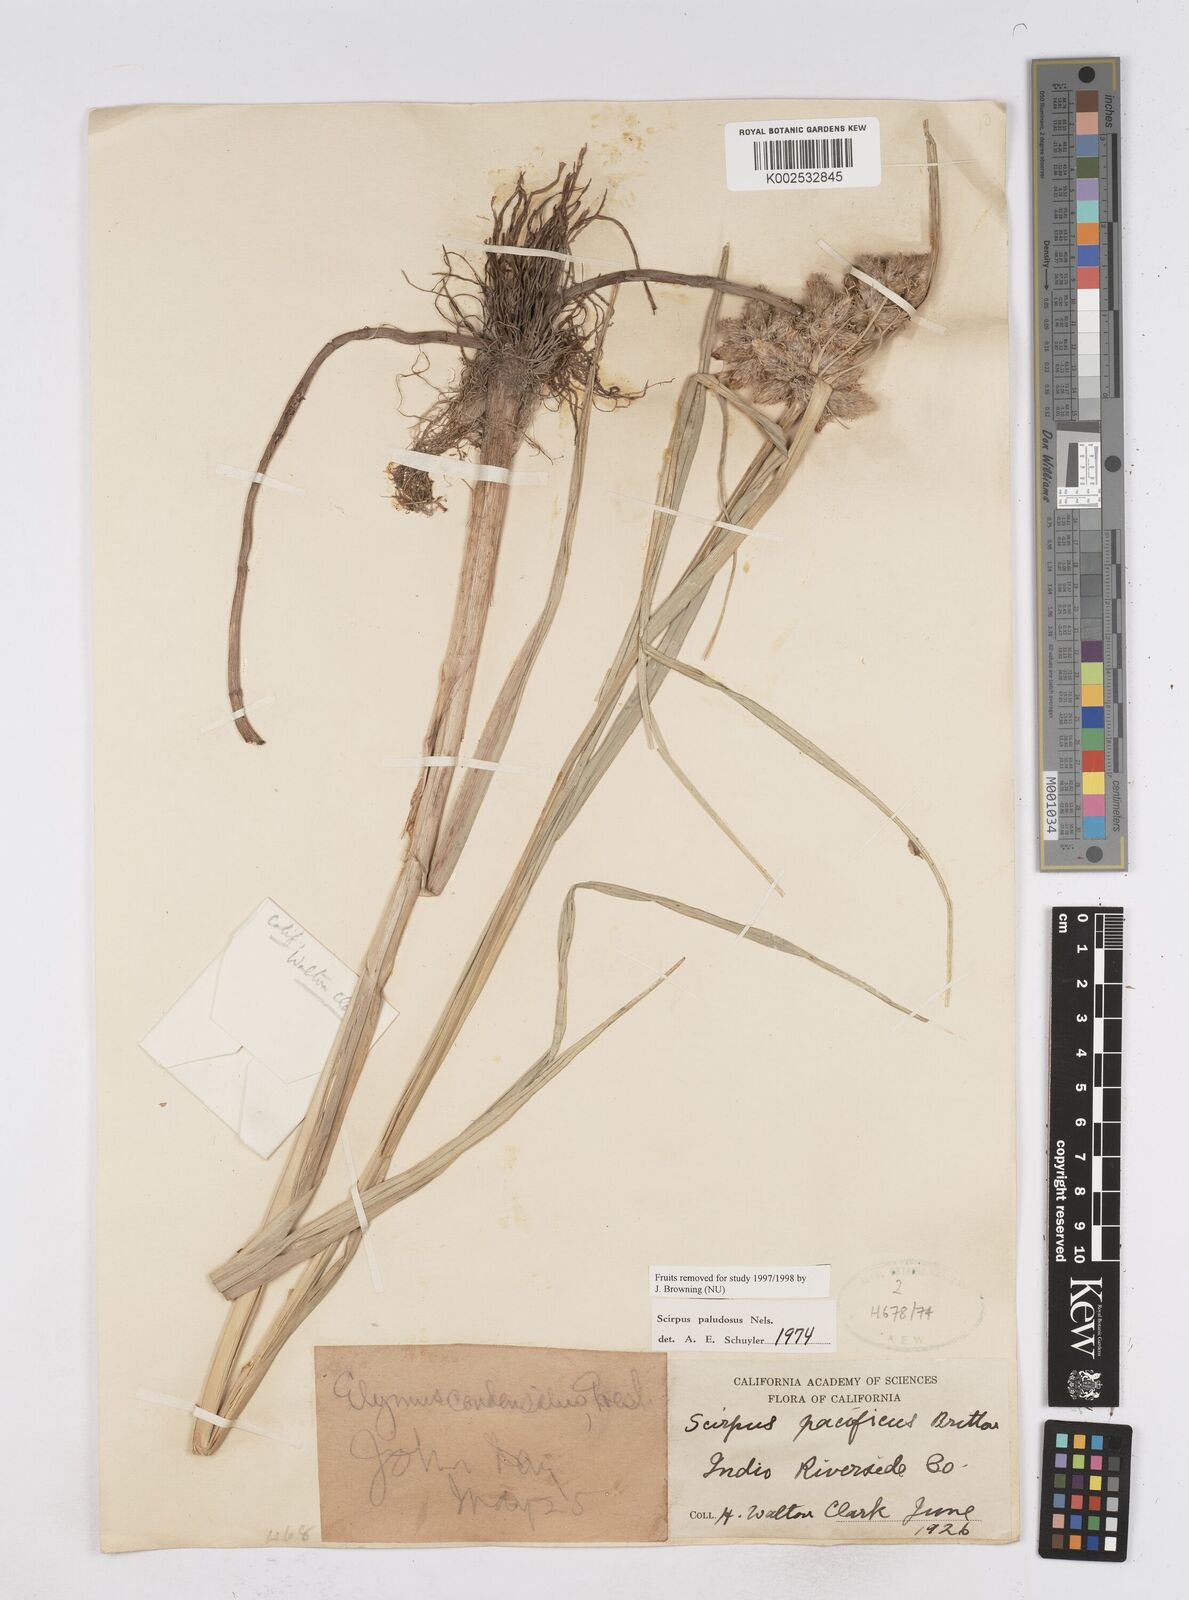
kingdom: Plantae
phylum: Tracheophyta
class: Liliopsida
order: Poales
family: Cyperaceae
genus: Bolboschoenus
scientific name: Bolboschoenus maritimus
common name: Sea club-rush
